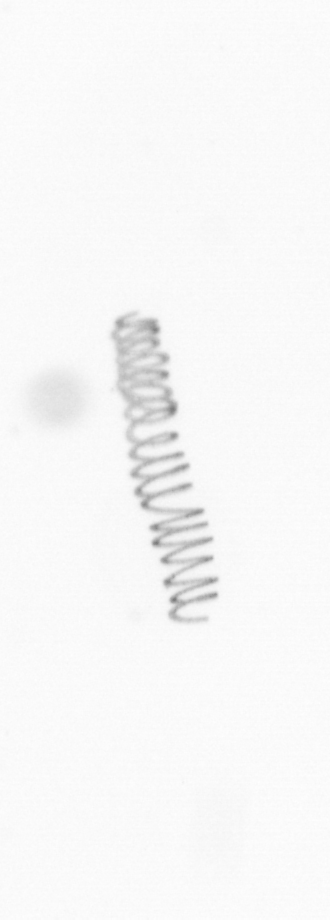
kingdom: Chromista
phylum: Ochrophyta
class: Bacillariophyceae
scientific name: Bacillariophyceae
